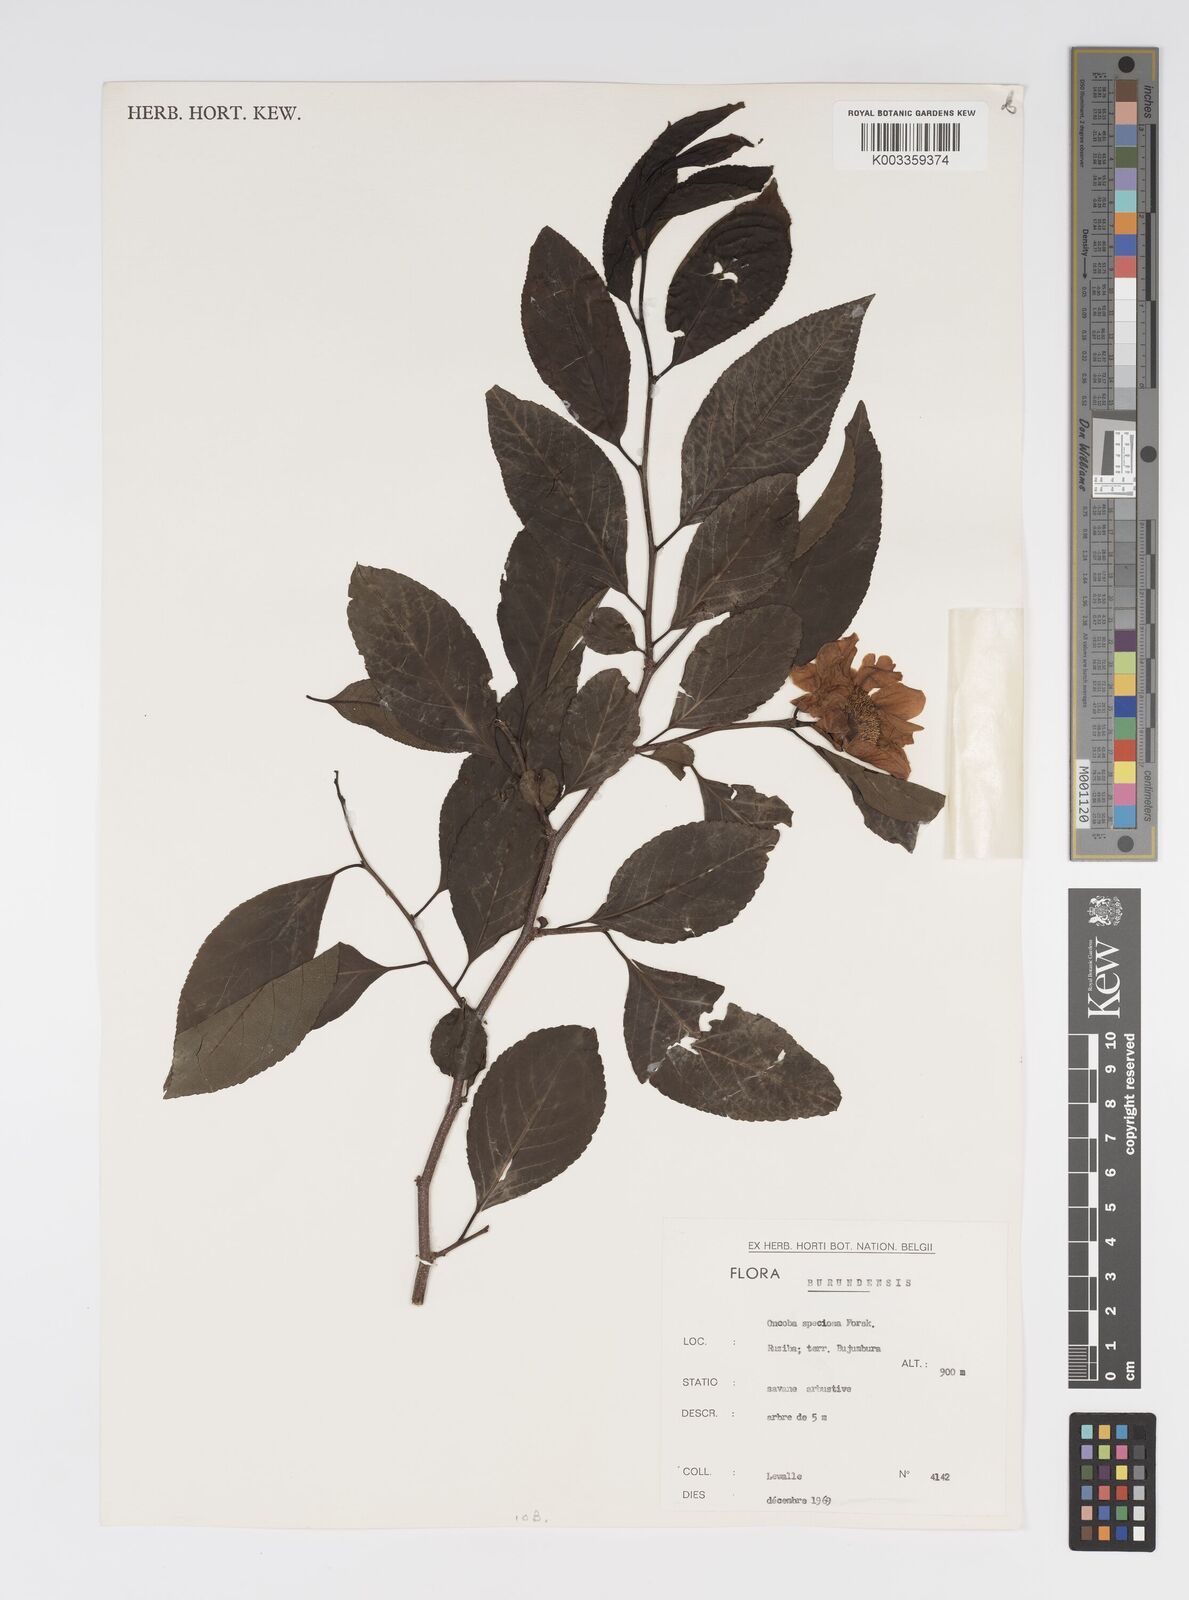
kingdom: Plantae
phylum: Tracheophyta
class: Magnoliopsida
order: Malpighiales
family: Salicaceae
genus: Oncoba
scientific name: Oncoba spinosa
